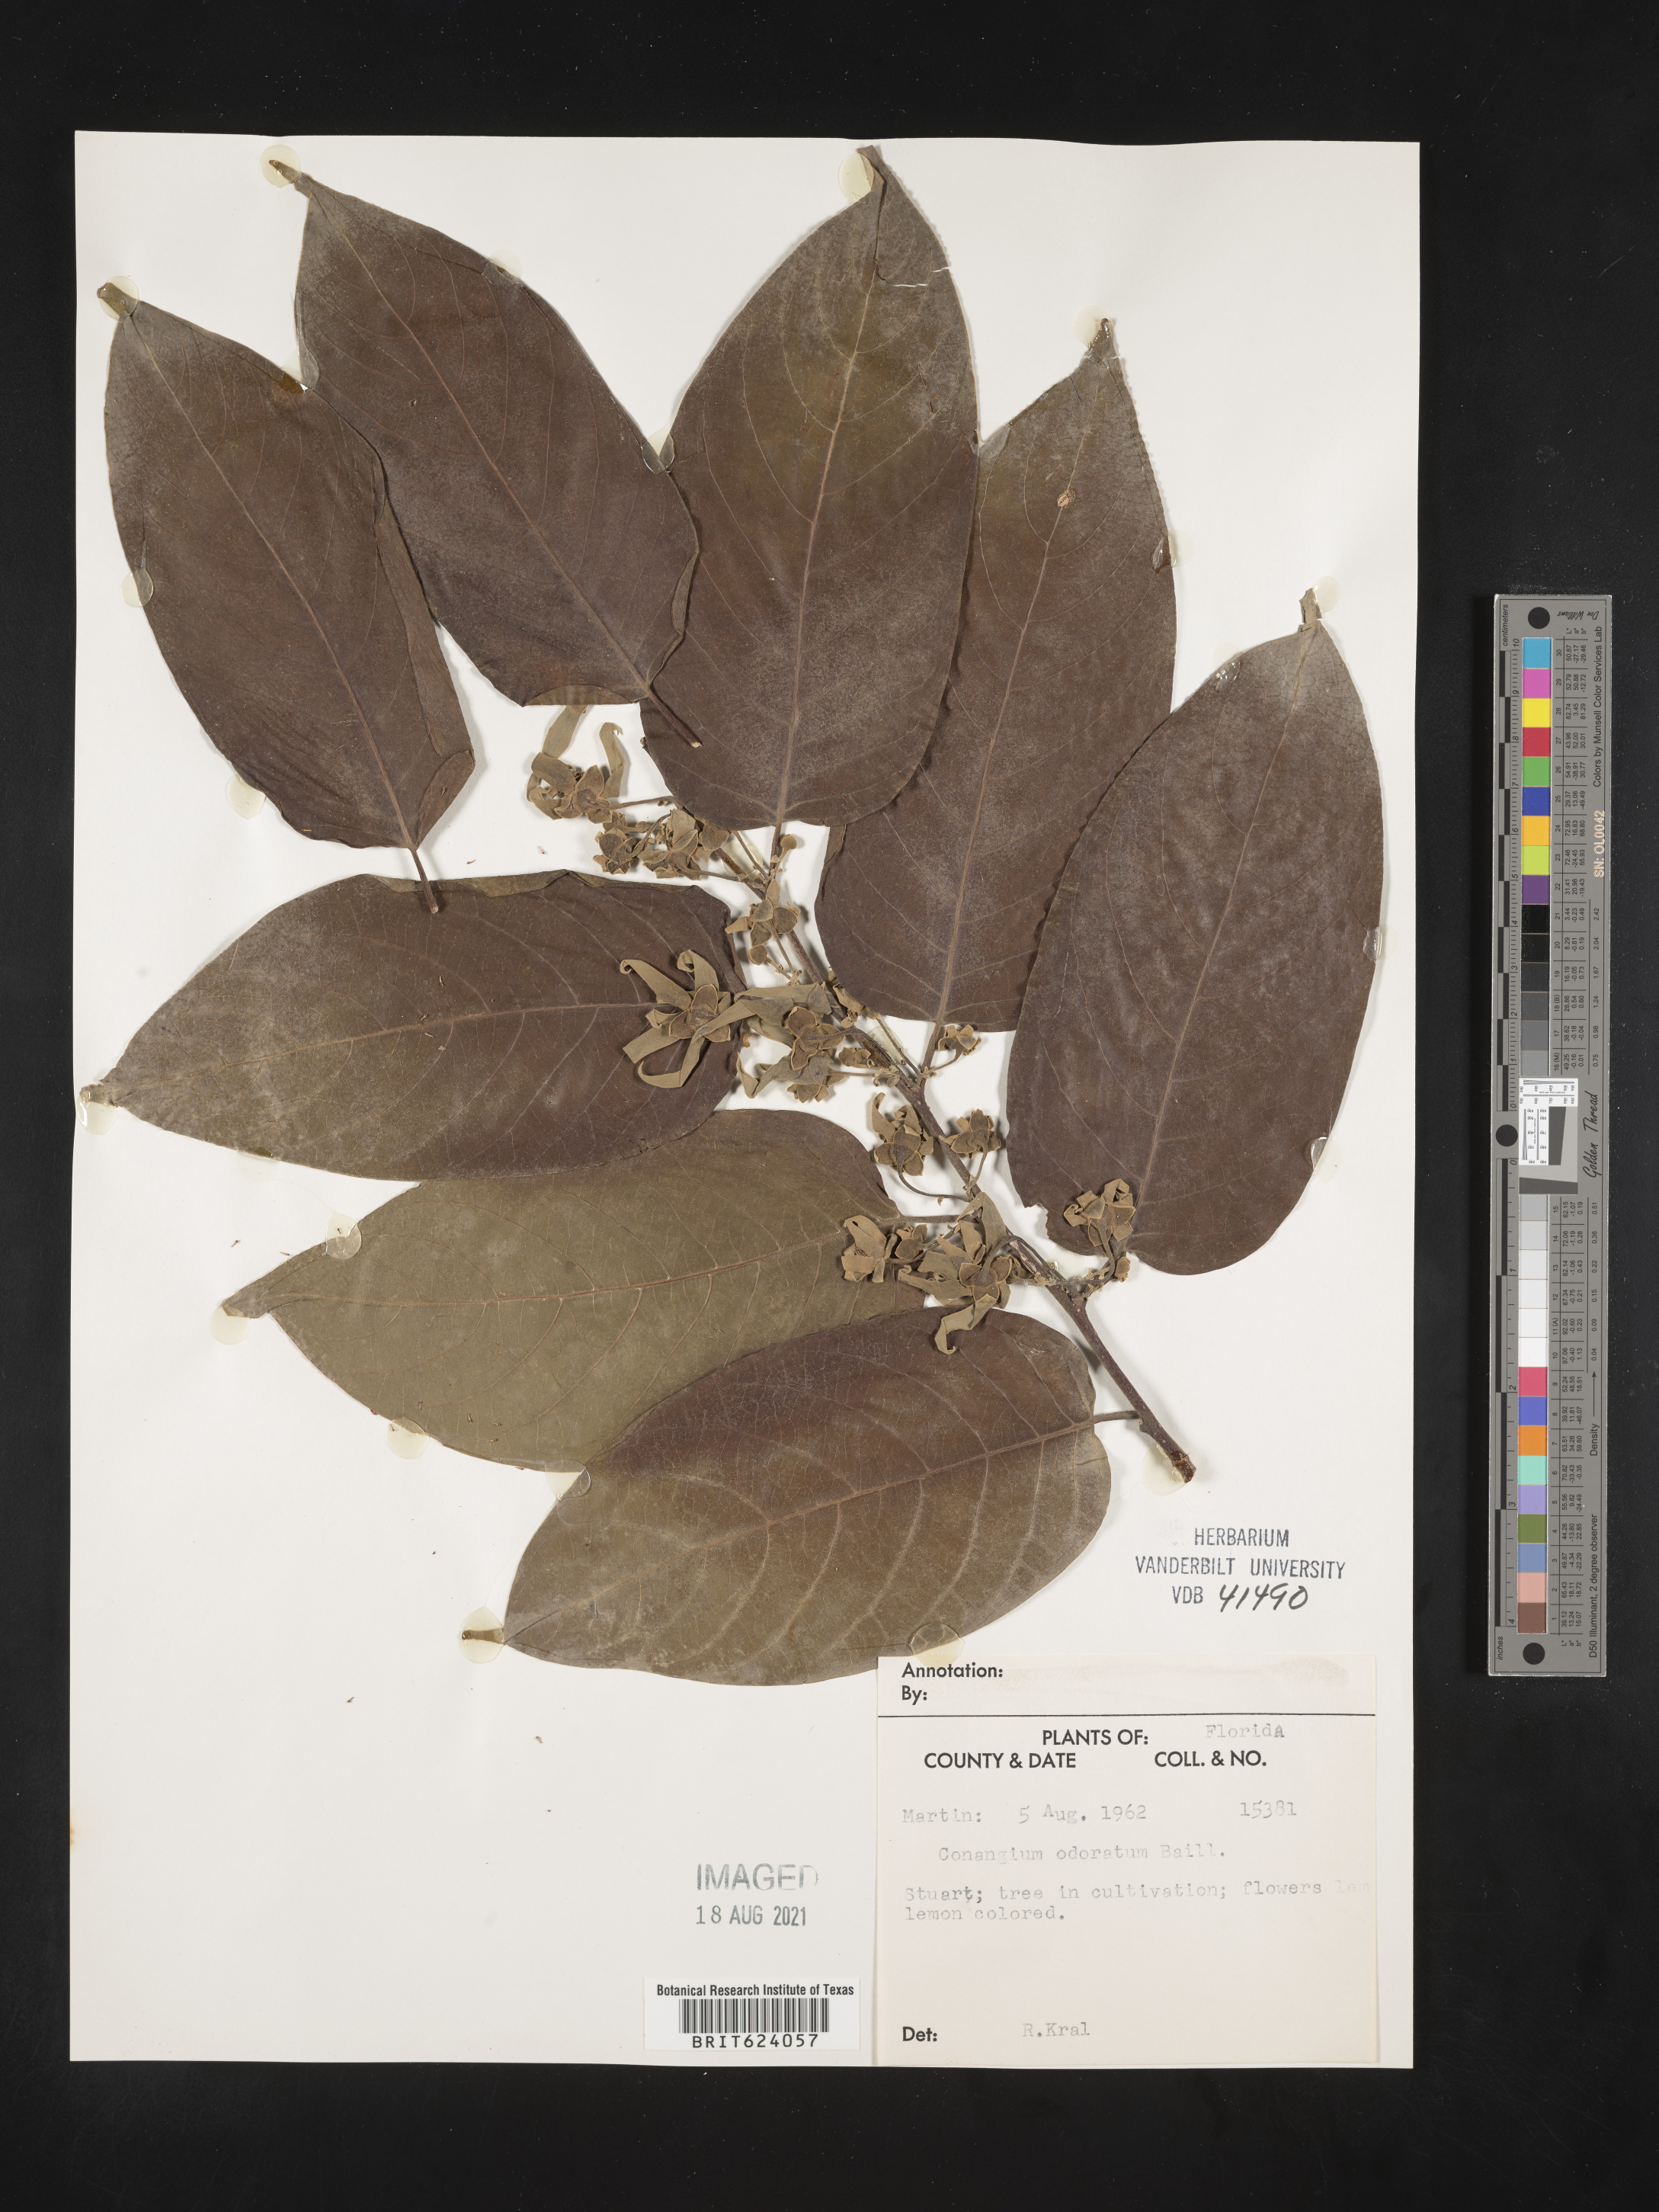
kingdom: Plantae
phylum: Tracheophyta
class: Magnoliopsida
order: Magnoliales
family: Annonaceae
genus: Cananga
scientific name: Cananga odorata
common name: Cananga tree
